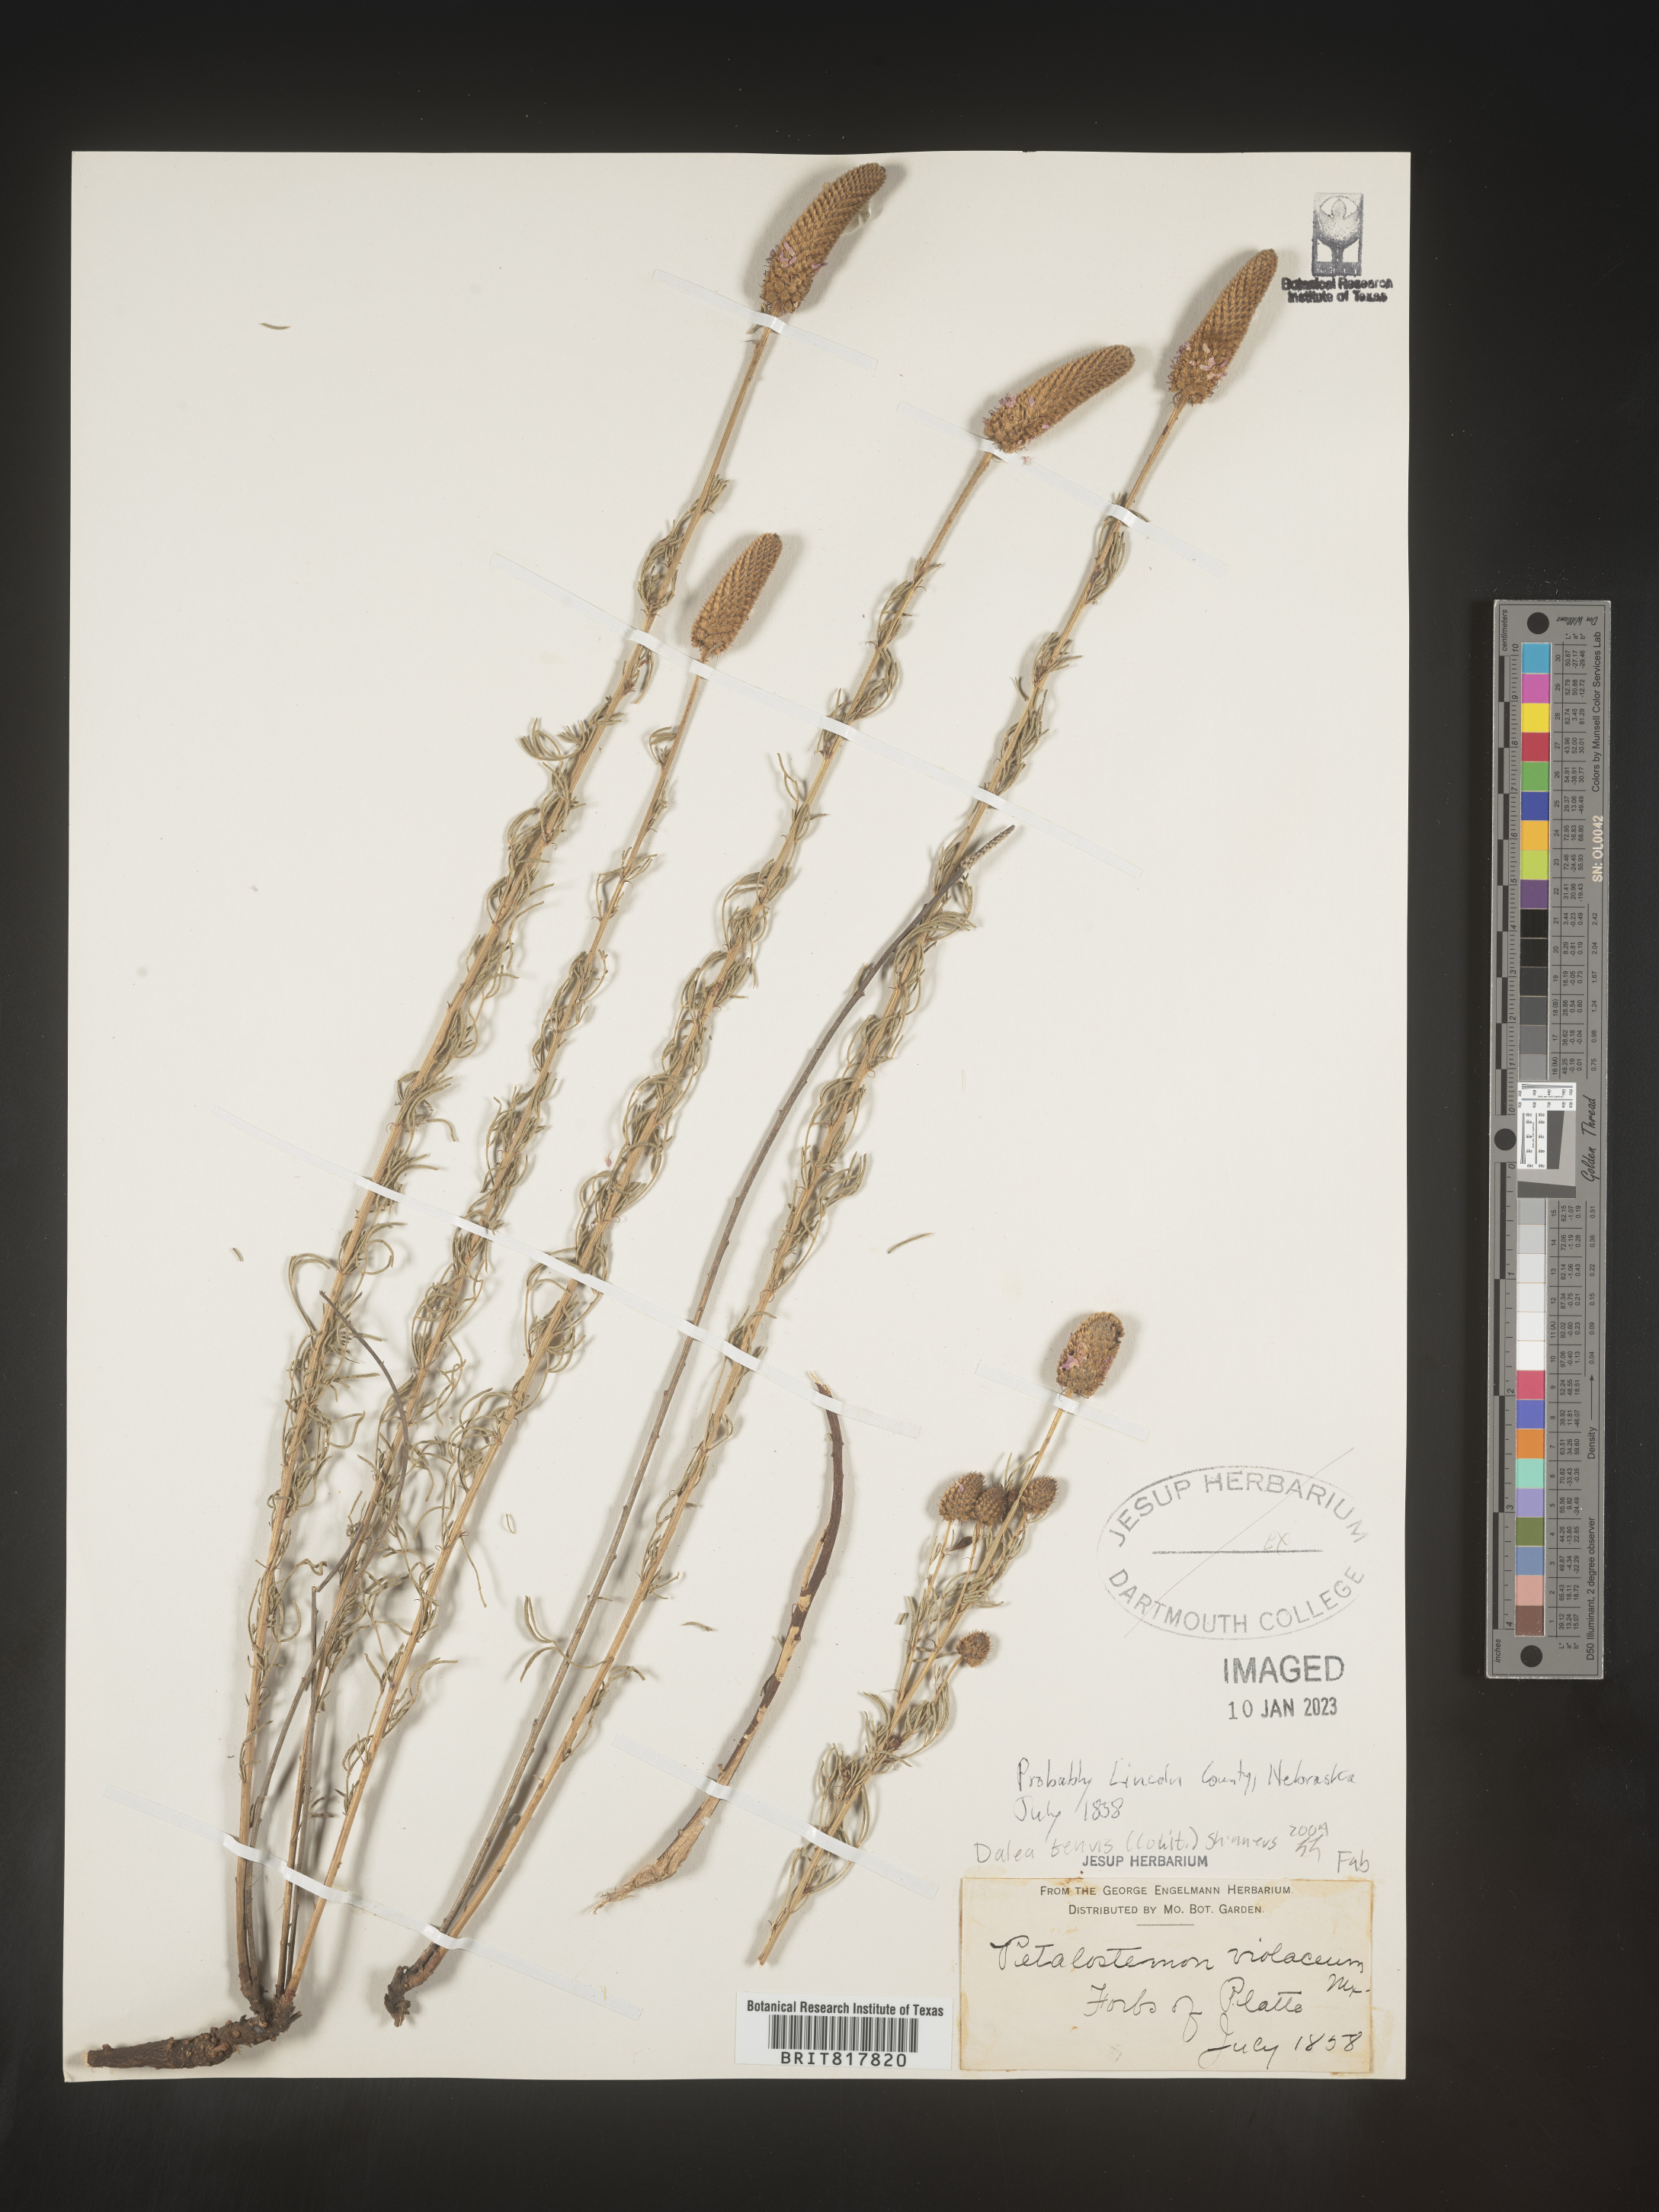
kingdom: Plantae
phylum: Tracheophyta
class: Magnoliopsida
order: Fabales
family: Fabaceae
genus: Dalea
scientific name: Dalea
